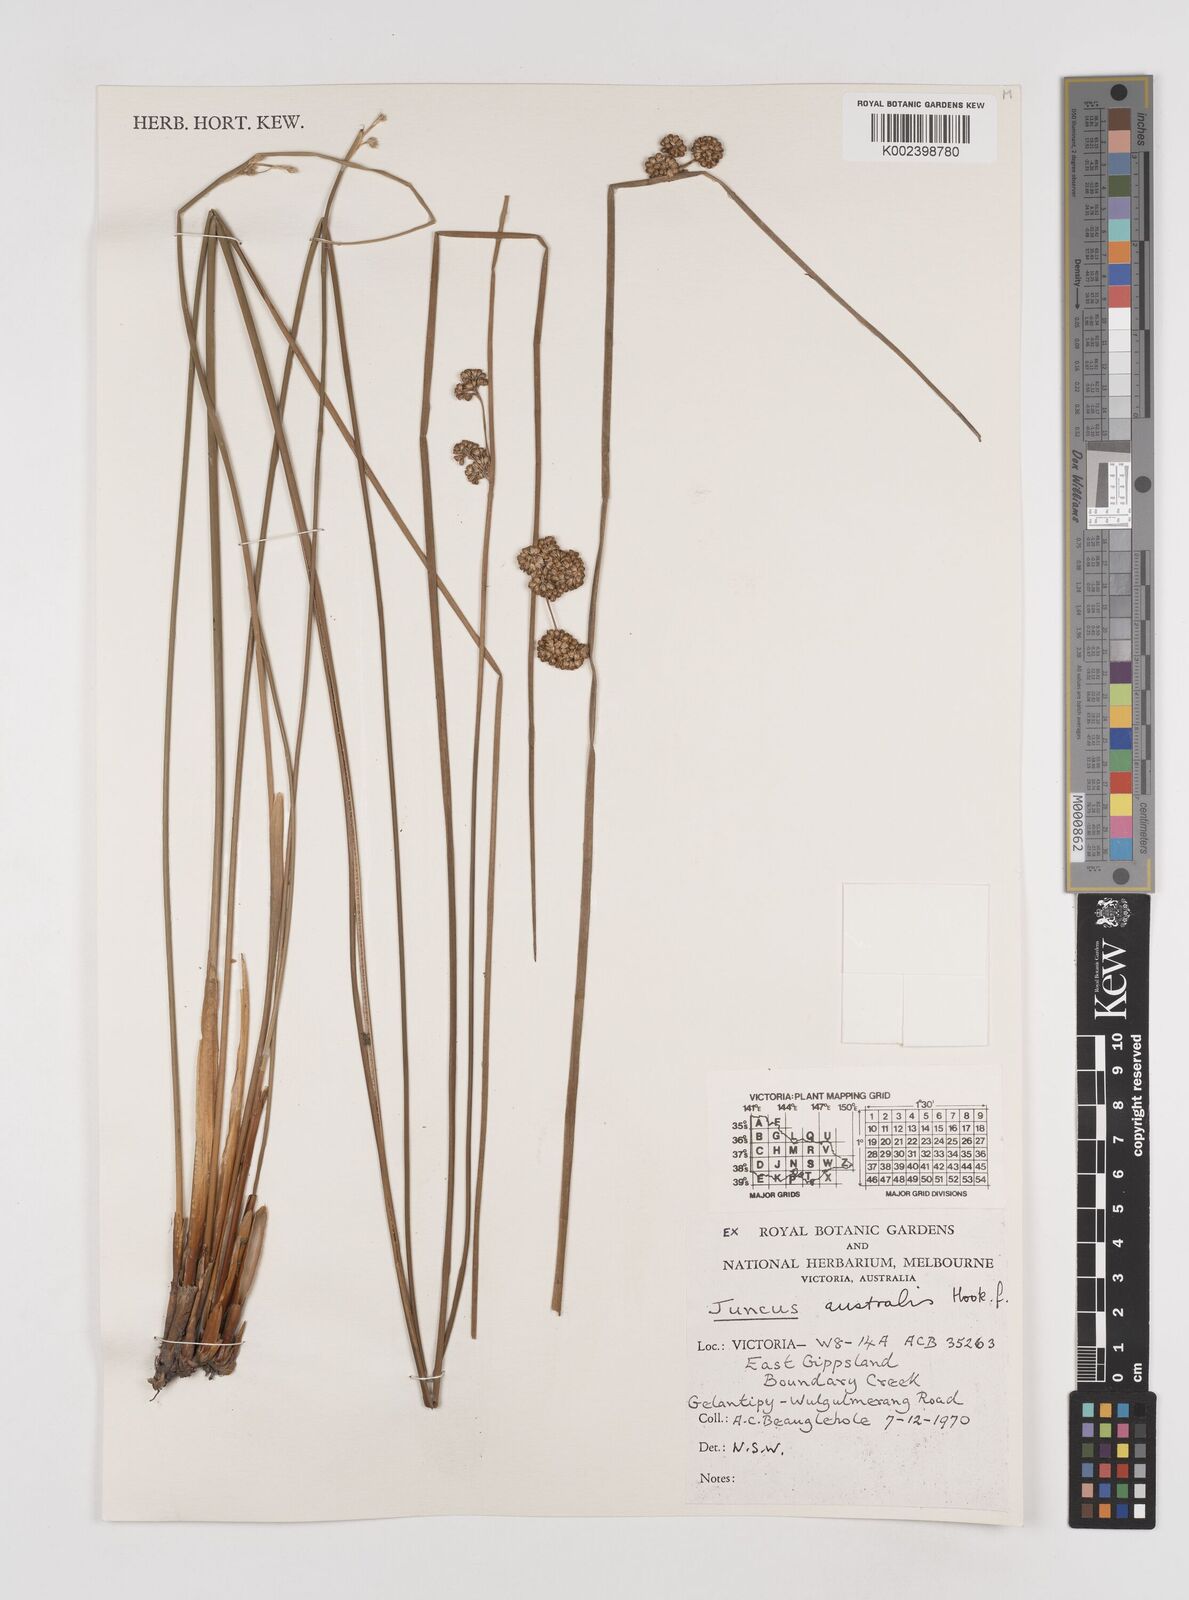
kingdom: Plantae
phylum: Tracheophyta
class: Liliopsida
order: Poales
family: Juncaceae
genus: Juncus
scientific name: Juncus australis
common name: Austral rush
